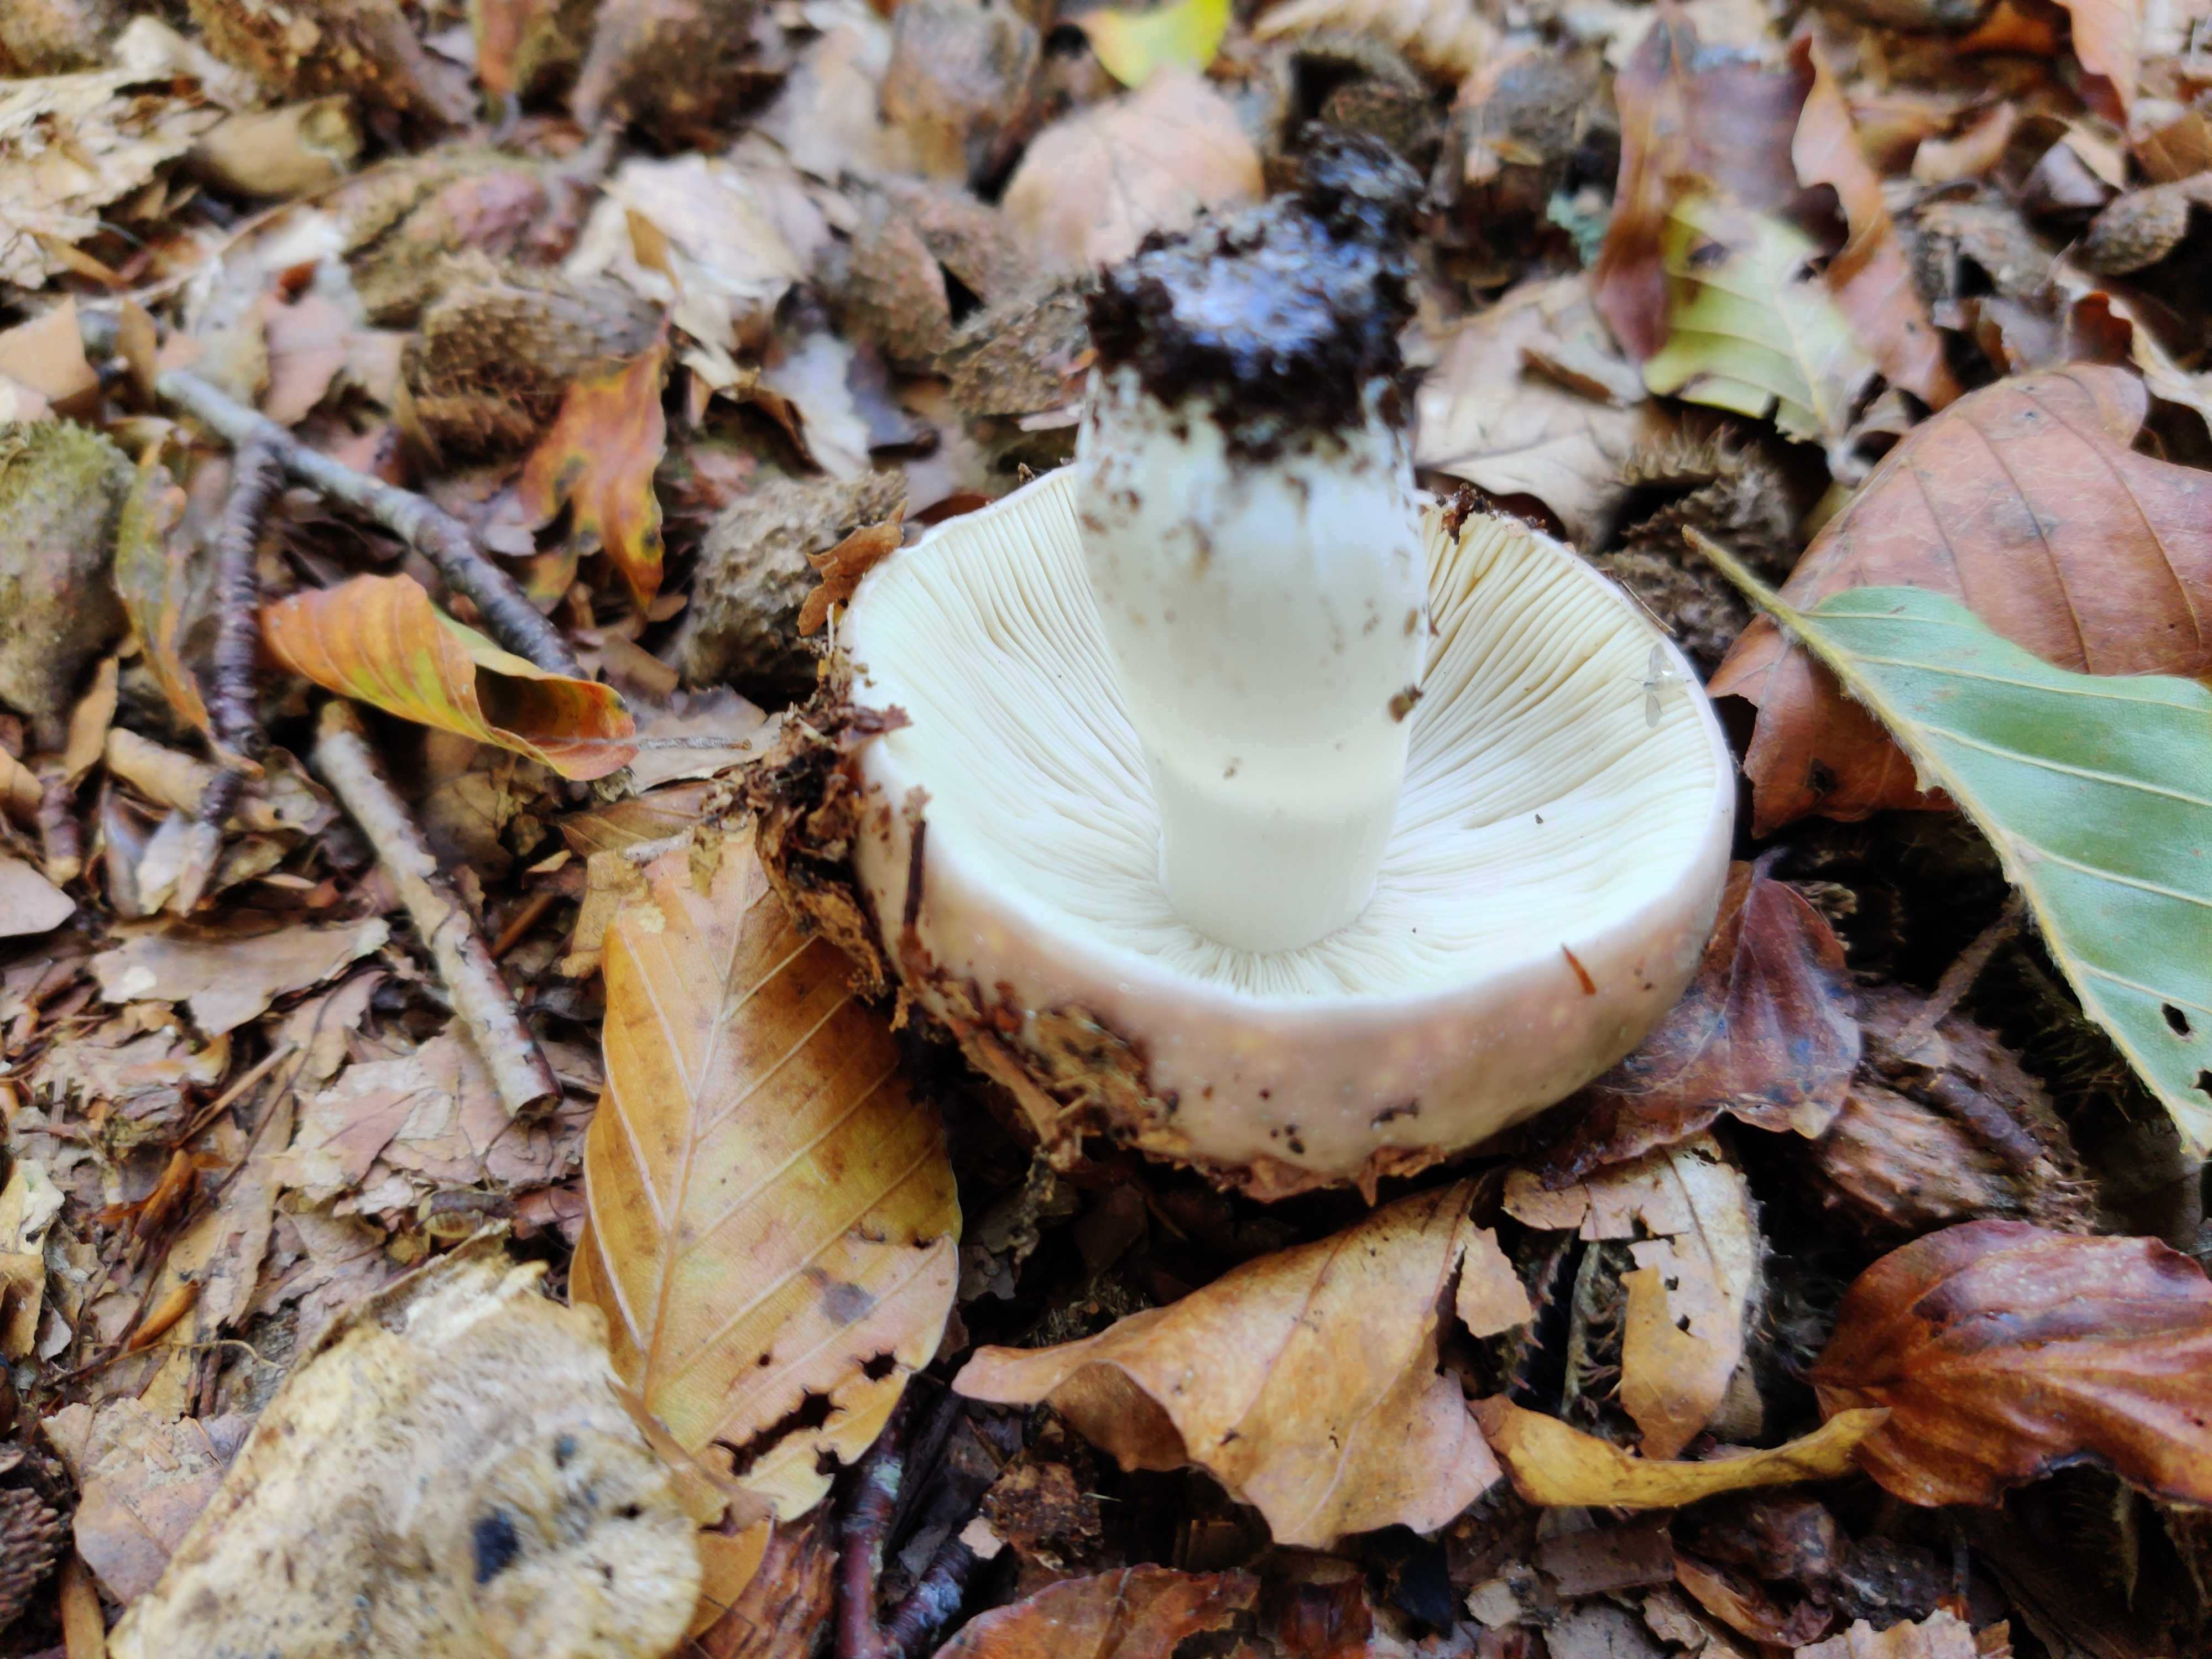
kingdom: Fungi
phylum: Basidiomycota
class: Agaricomycetes
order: Russulales
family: Russulaceae
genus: Russula
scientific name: Russula
